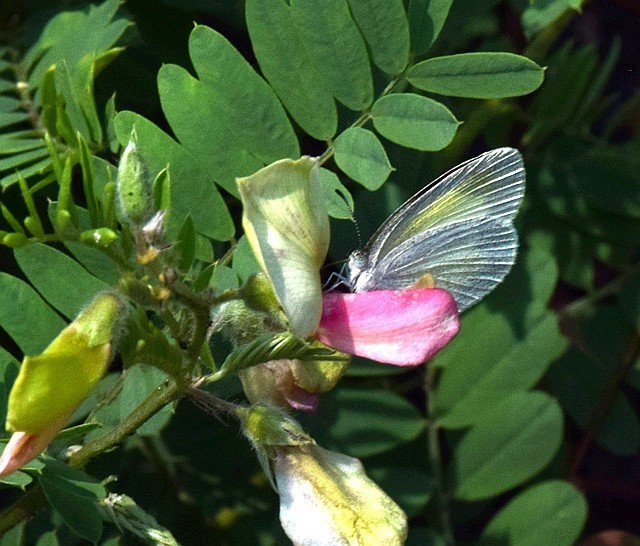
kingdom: Animalia
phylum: Arthropoda
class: Insecta
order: Lepidoptera
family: Pieridae
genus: Eurema
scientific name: Eurema daira
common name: Barred Yellow
